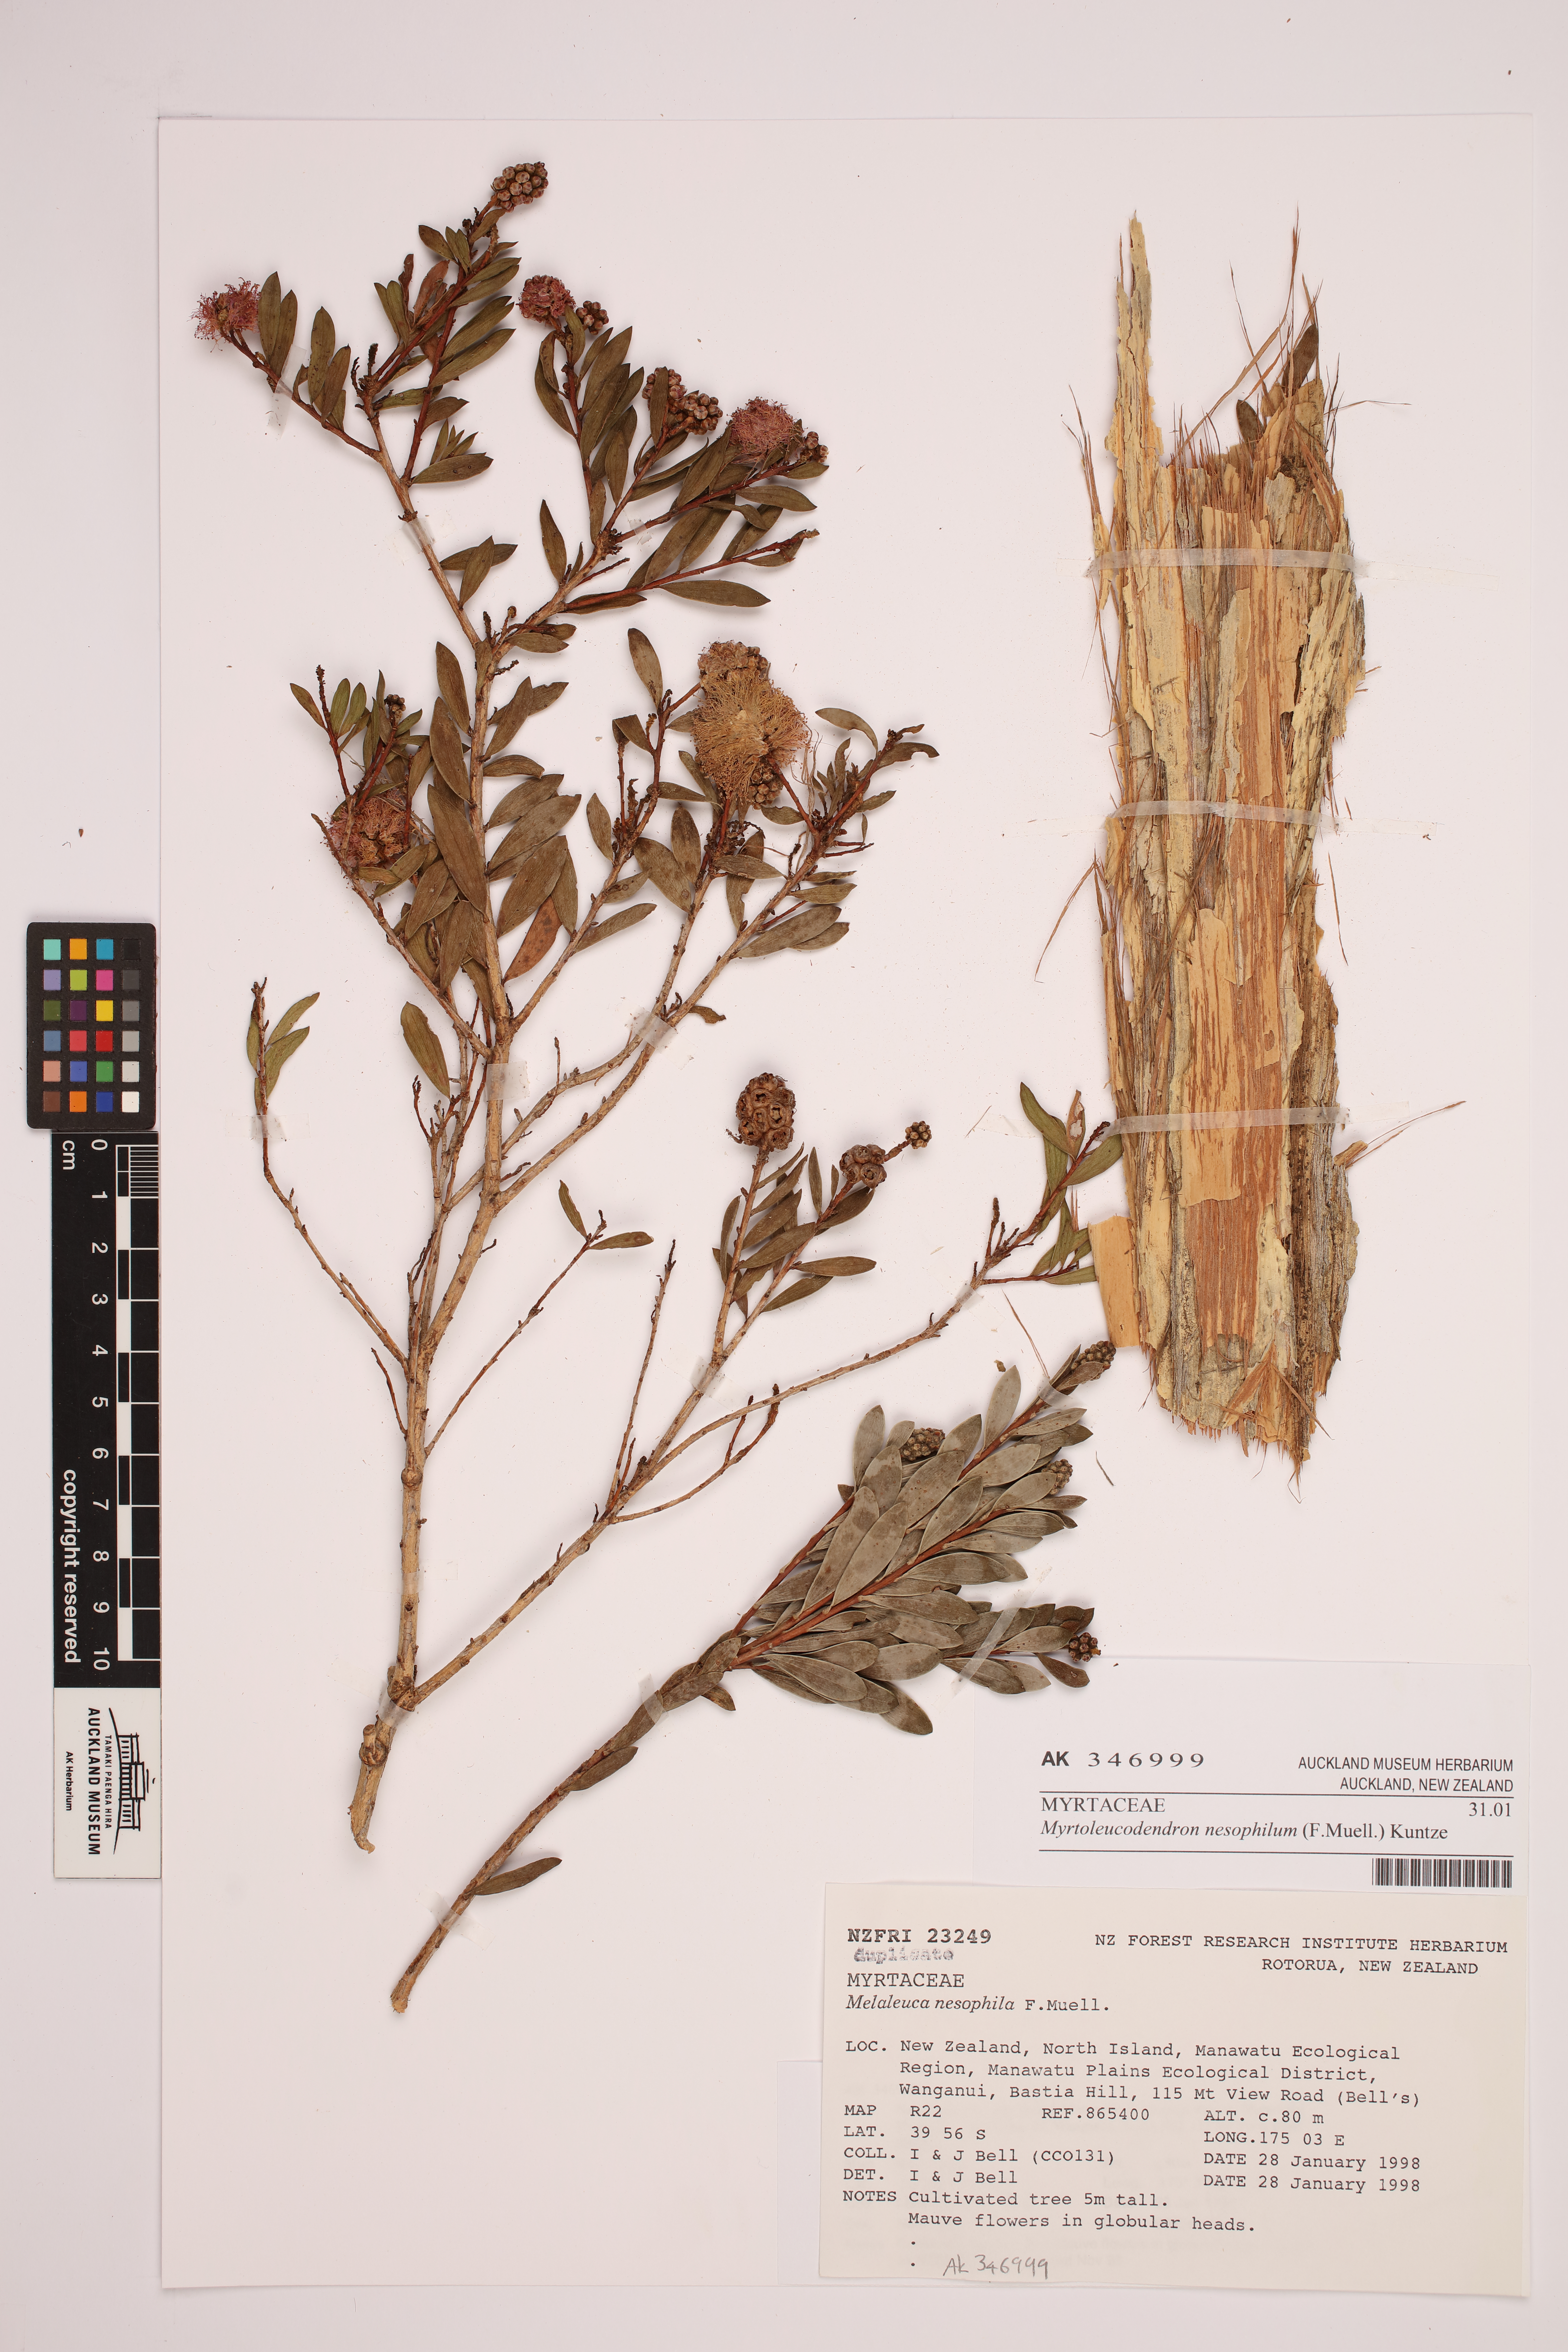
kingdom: Plantae
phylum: Tracheophyta
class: Magnoliopsida
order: Myrtales
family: Myrtaceae
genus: Melaleuca
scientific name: Melaleuca nesophila
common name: Mauve honey myrtle
